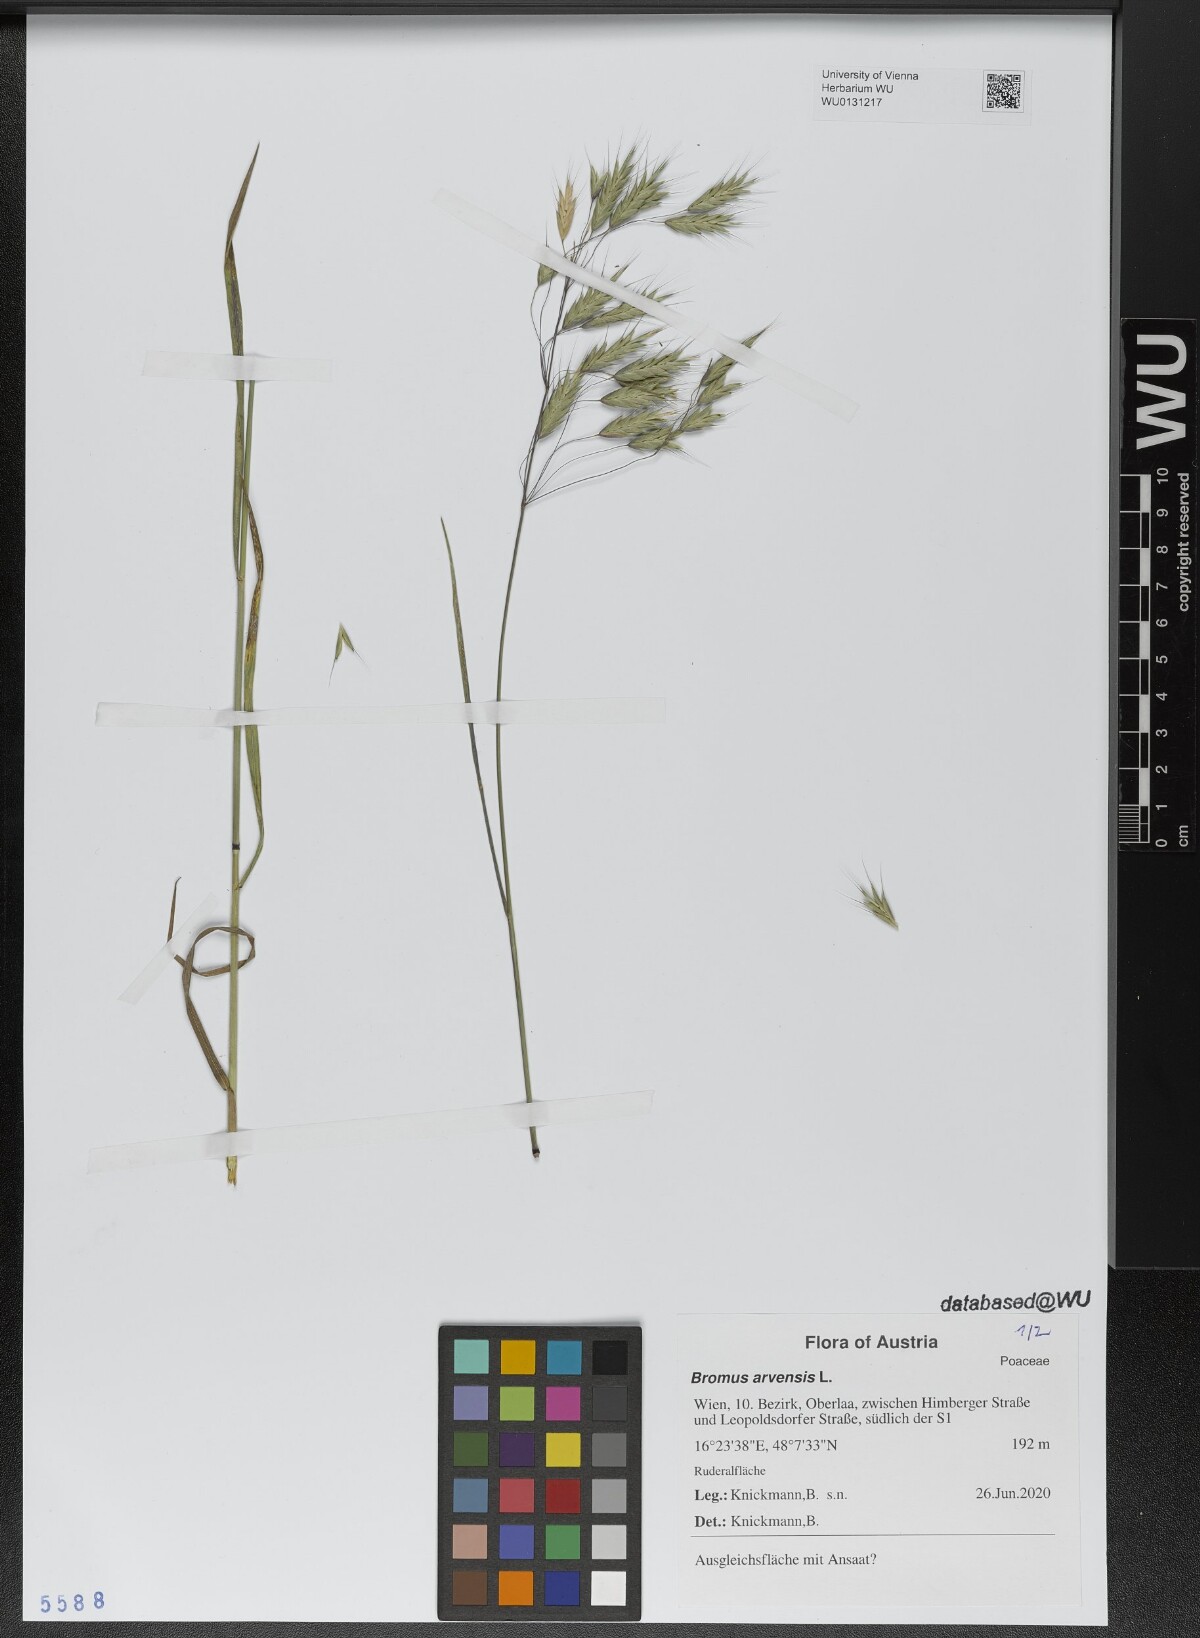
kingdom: Plantae
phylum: Tracheophyta
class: Liliopsida
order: Poales
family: Poaceae
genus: Bromus
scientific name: Bromus arvensis
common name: Field brome
